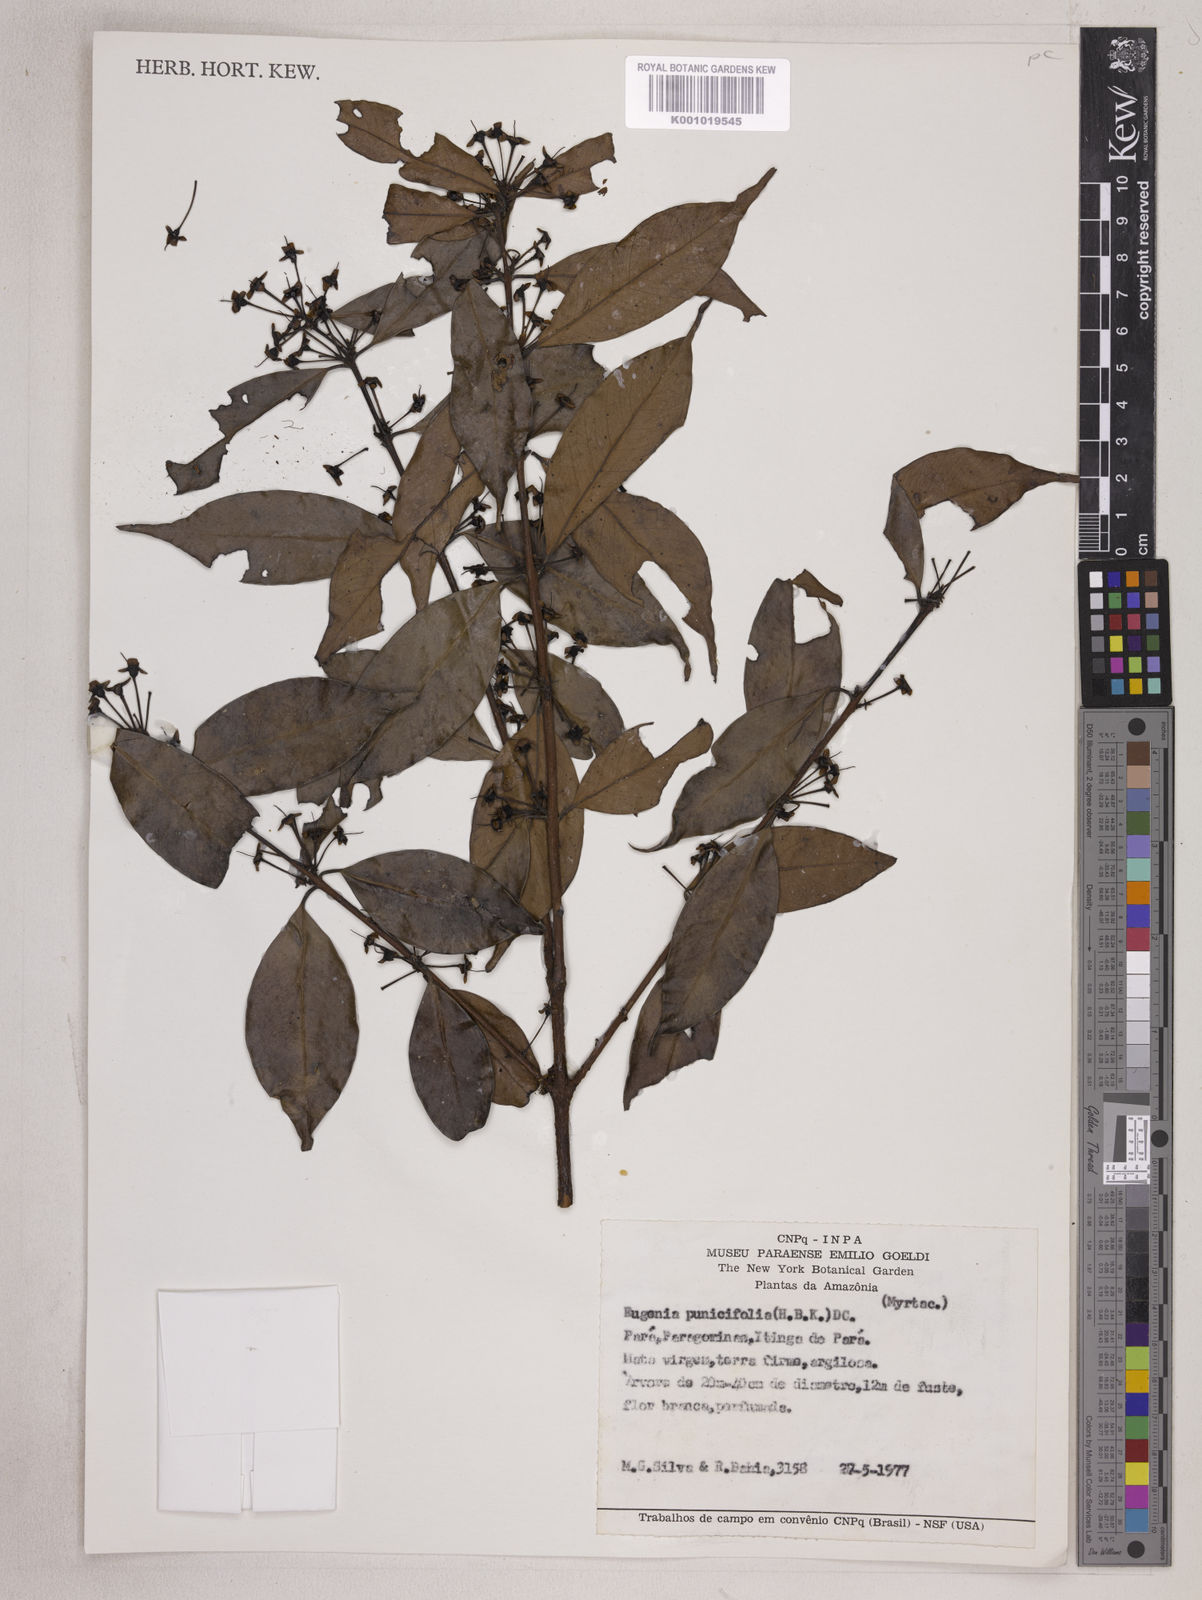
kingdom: Plantae
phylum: Tracheophyta
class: Magnoliopsida
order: Myrtales
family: Myrtaceae
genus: Eugenia
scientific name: Eugenia punicifolia
